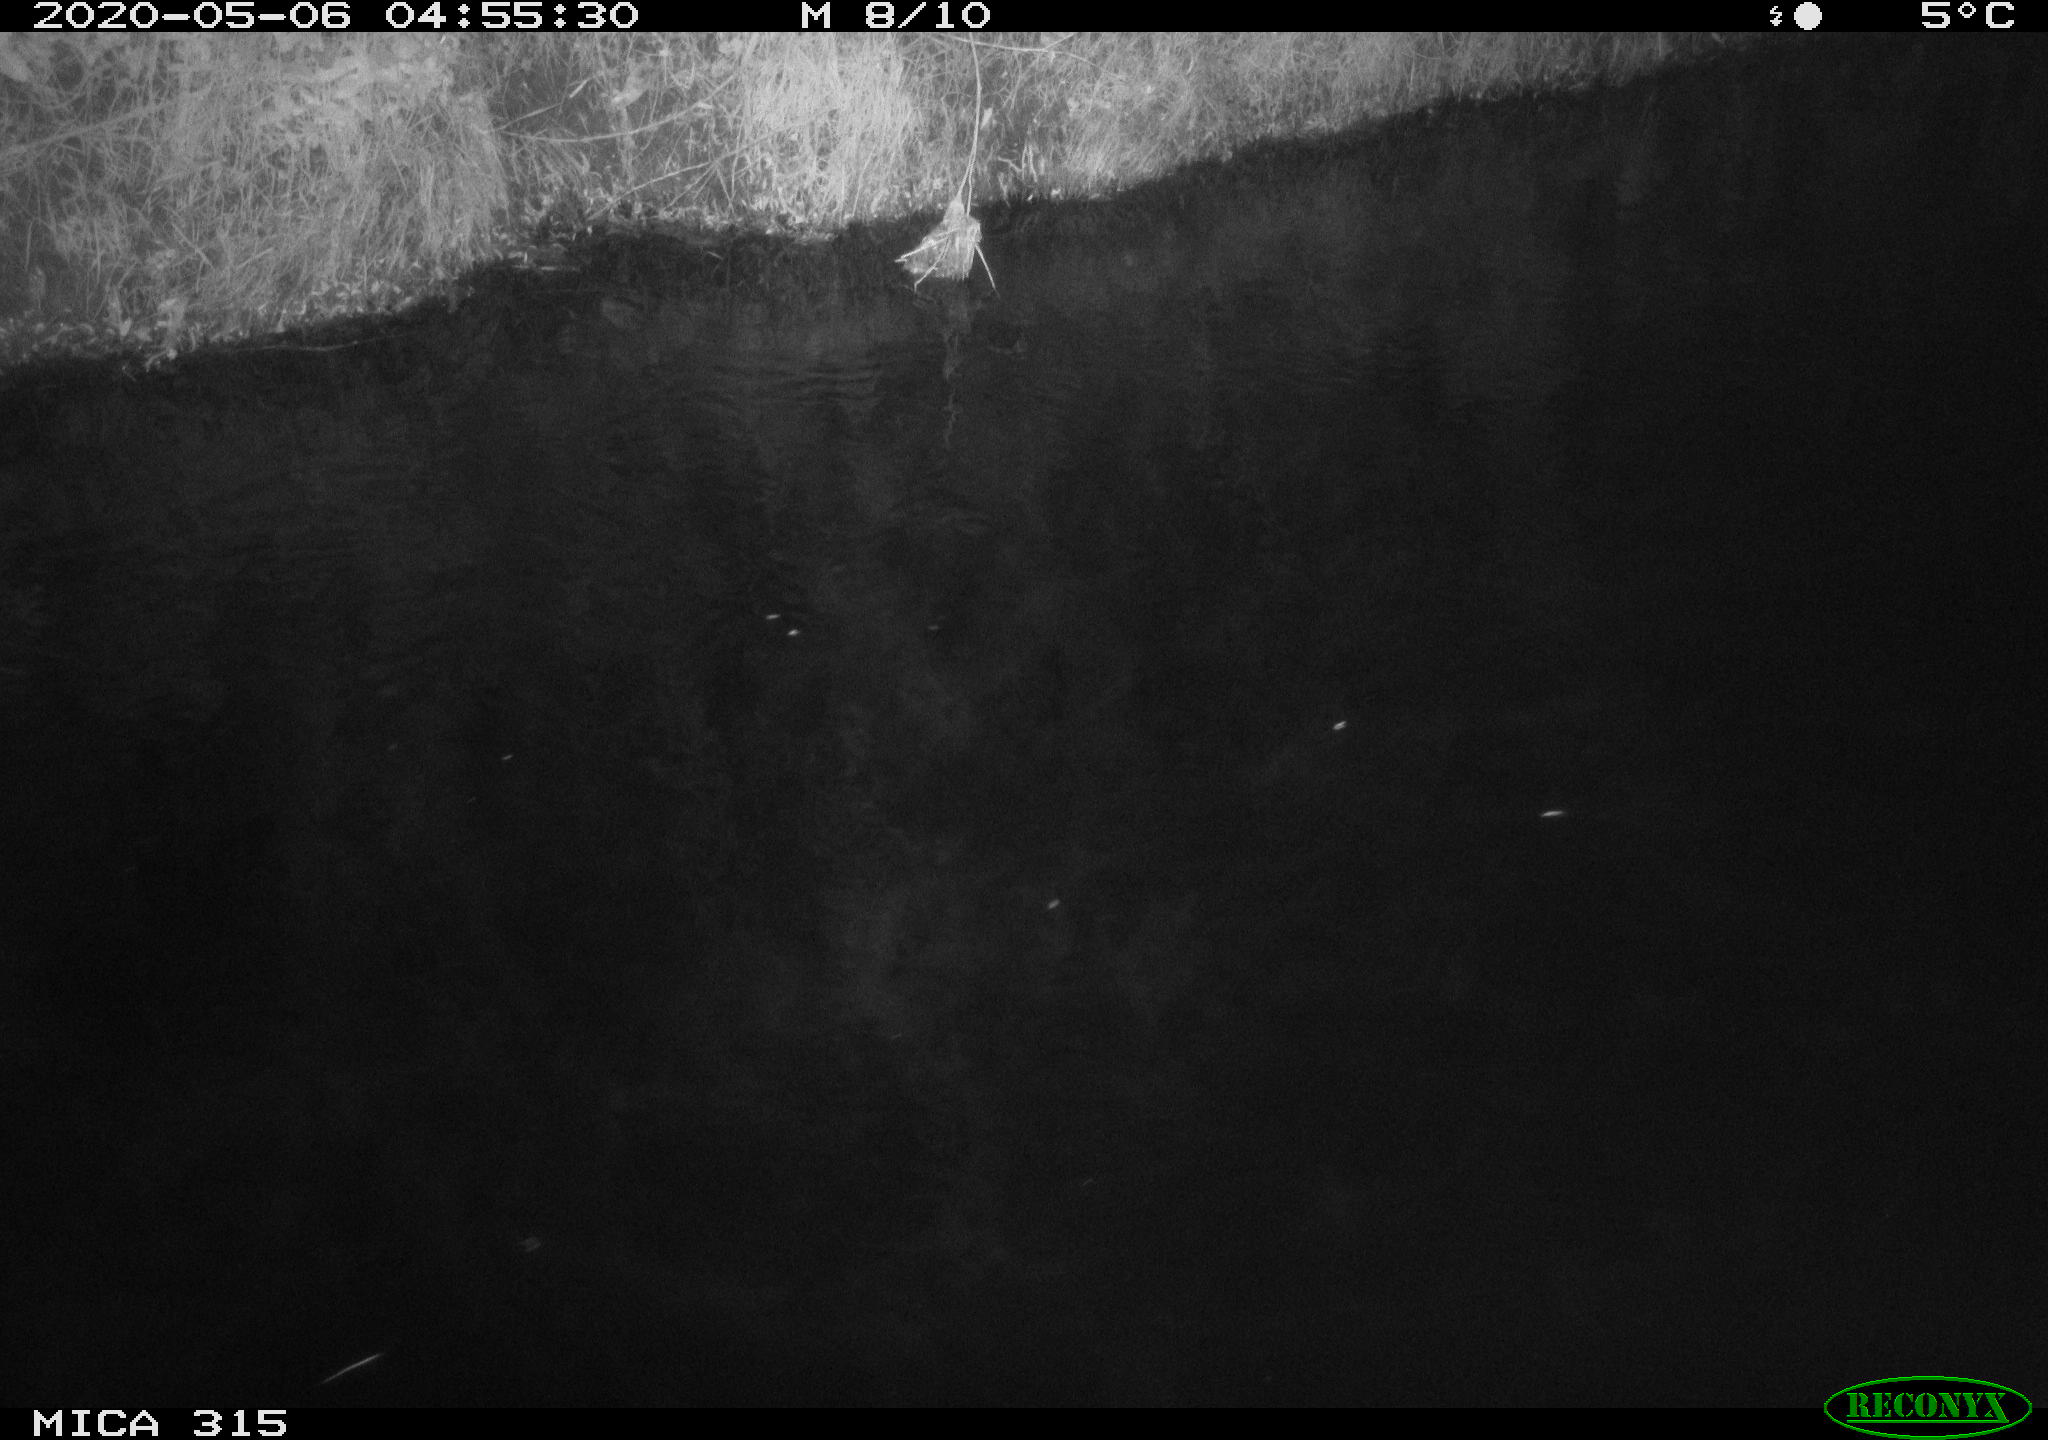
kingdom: Animalia
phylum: Chordata
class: Aves
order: Anseriformes
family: Anatidae
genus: Anas
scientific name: Anas platyrhynchos
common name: Mallard
